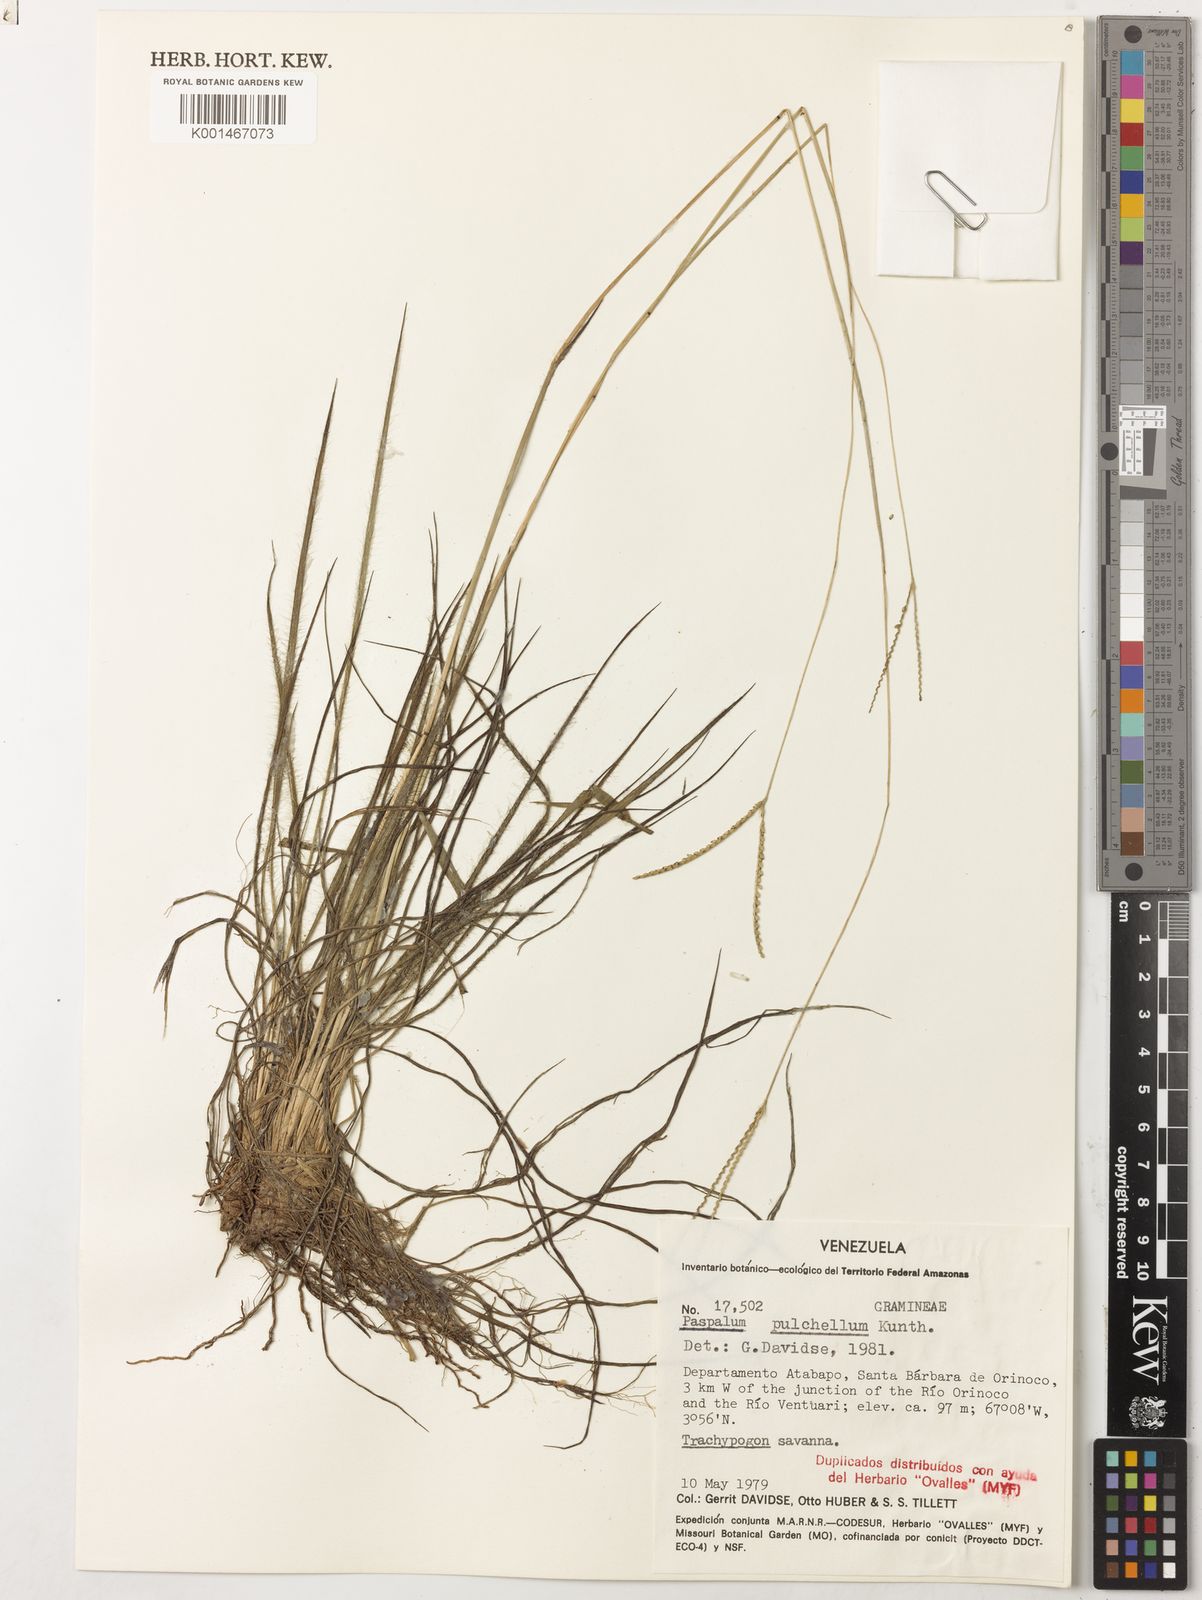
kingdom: Plantae
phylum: Tracheophyta
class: Liliopsida
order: Poales
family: Poaceae
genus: Paspalum
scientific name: Paspalum pulchellum
